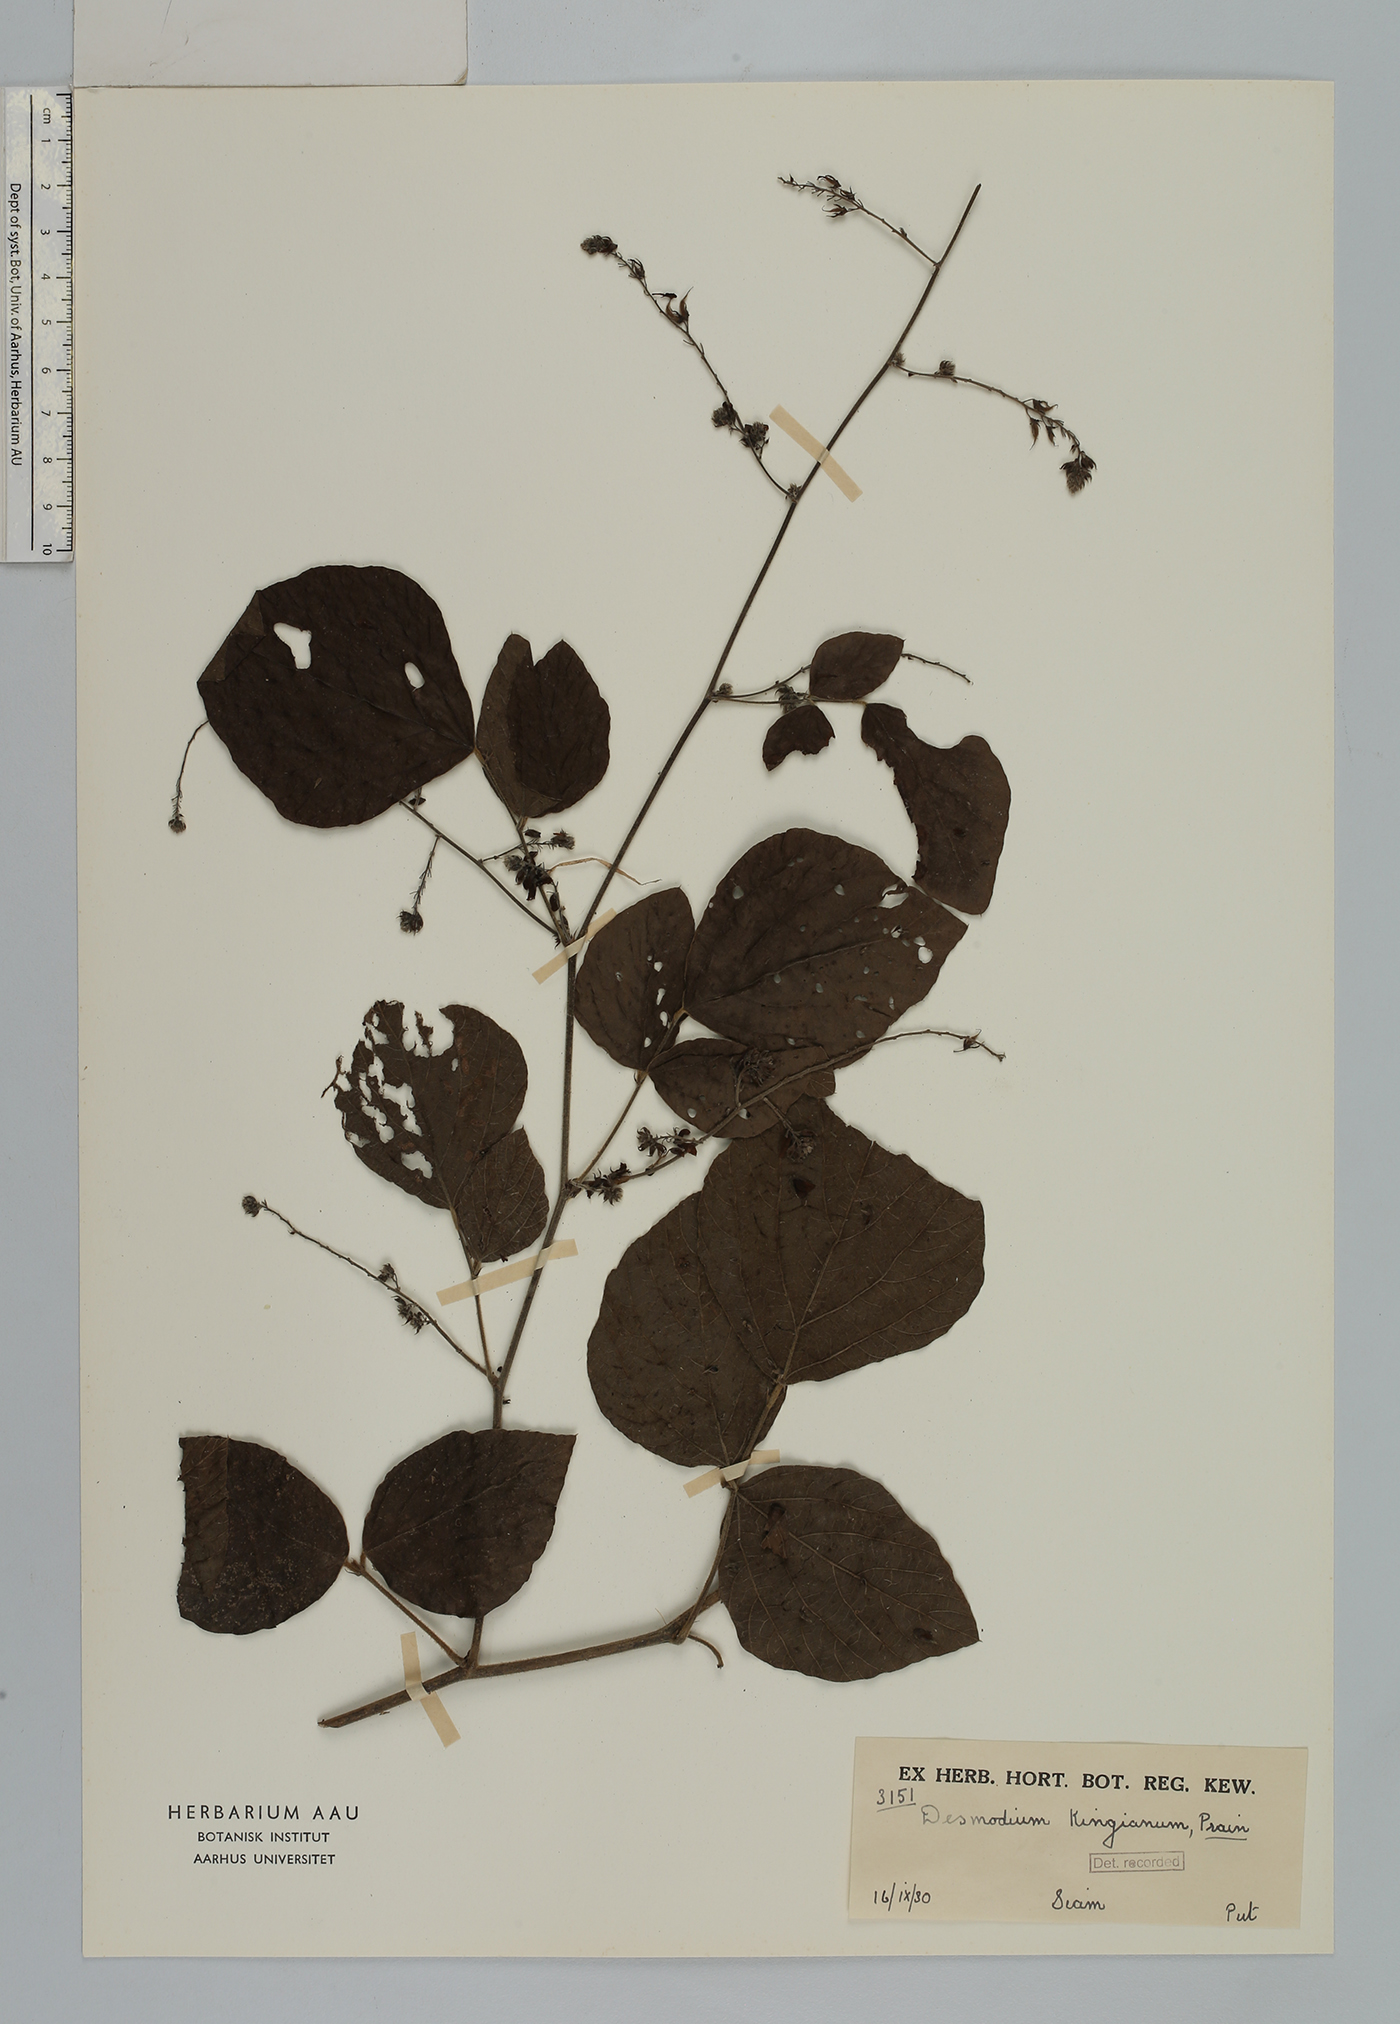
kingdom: Plantae
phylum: Tracheophyta
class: Magnoliopsida
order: Fabales
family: Fabaceae
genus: Daprainia
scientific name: Daprainia kingiana
